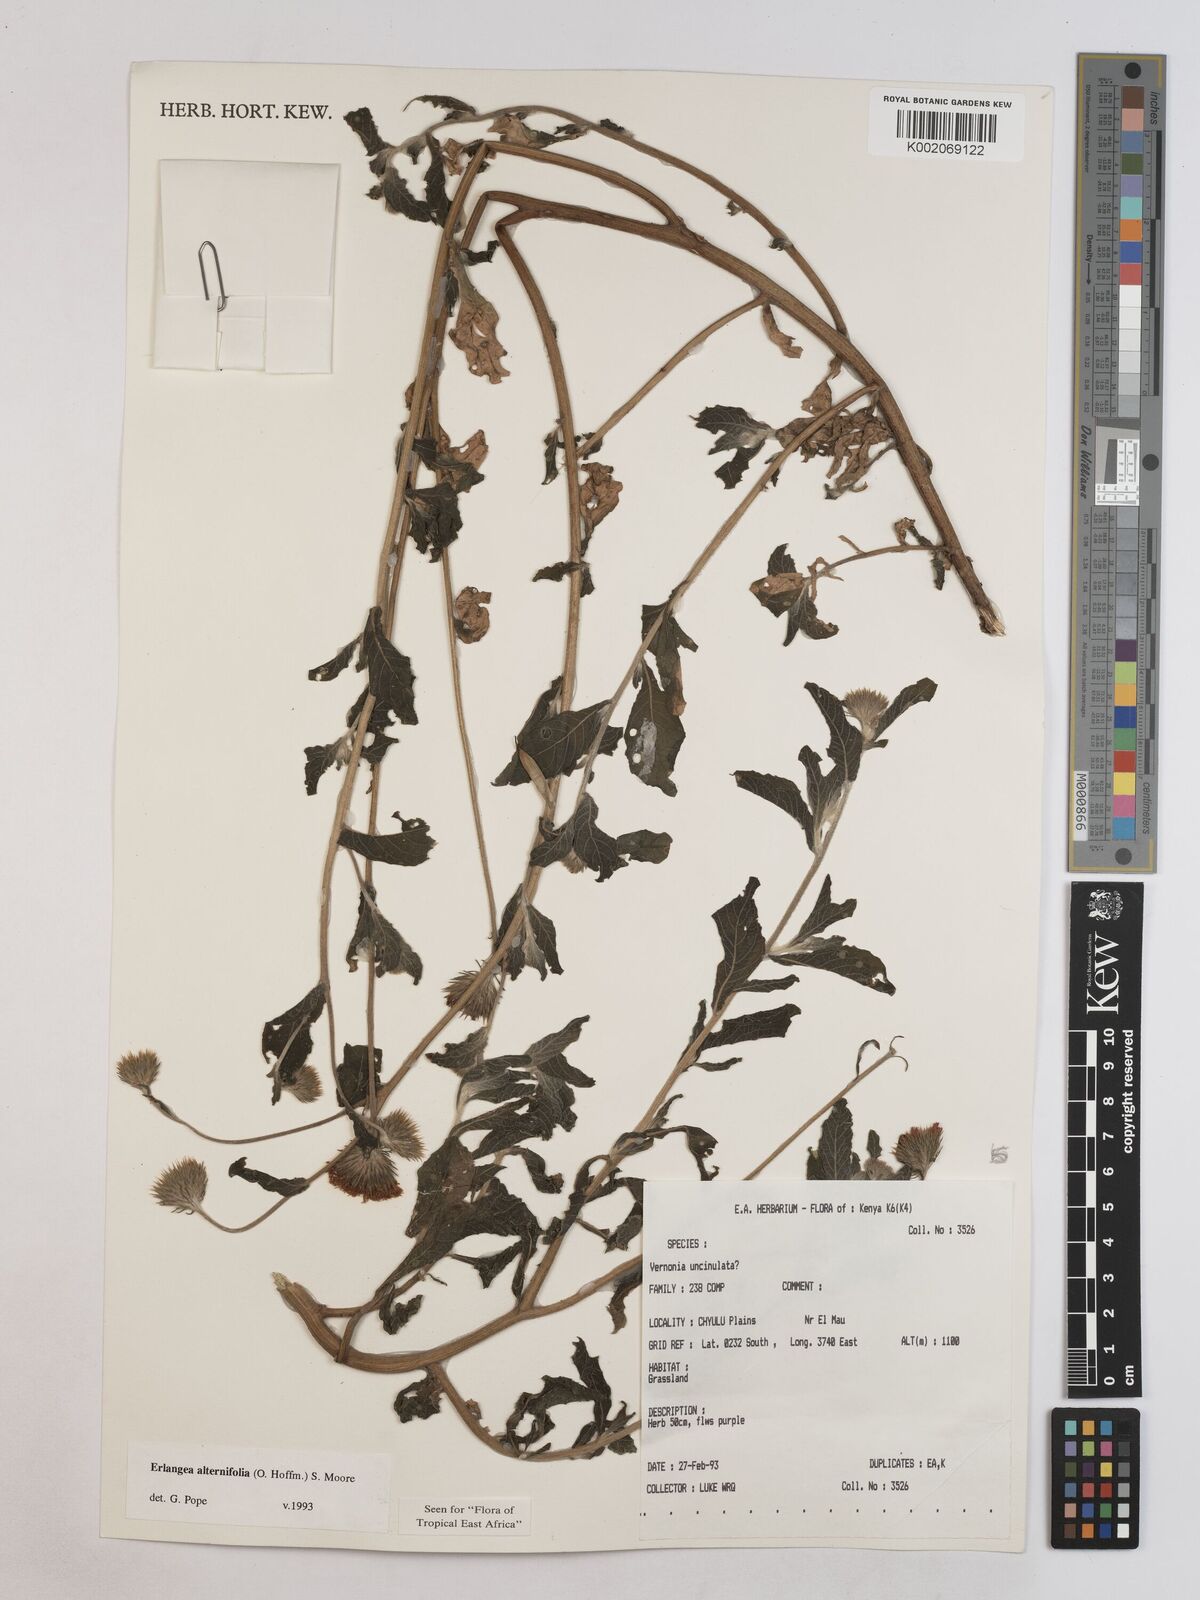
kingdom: Plantae
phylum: Tracheophyta
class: Magnoliopsida
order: Asterales
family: Asteraceae
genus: Erlangea
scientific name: Erlangea alternifolia
